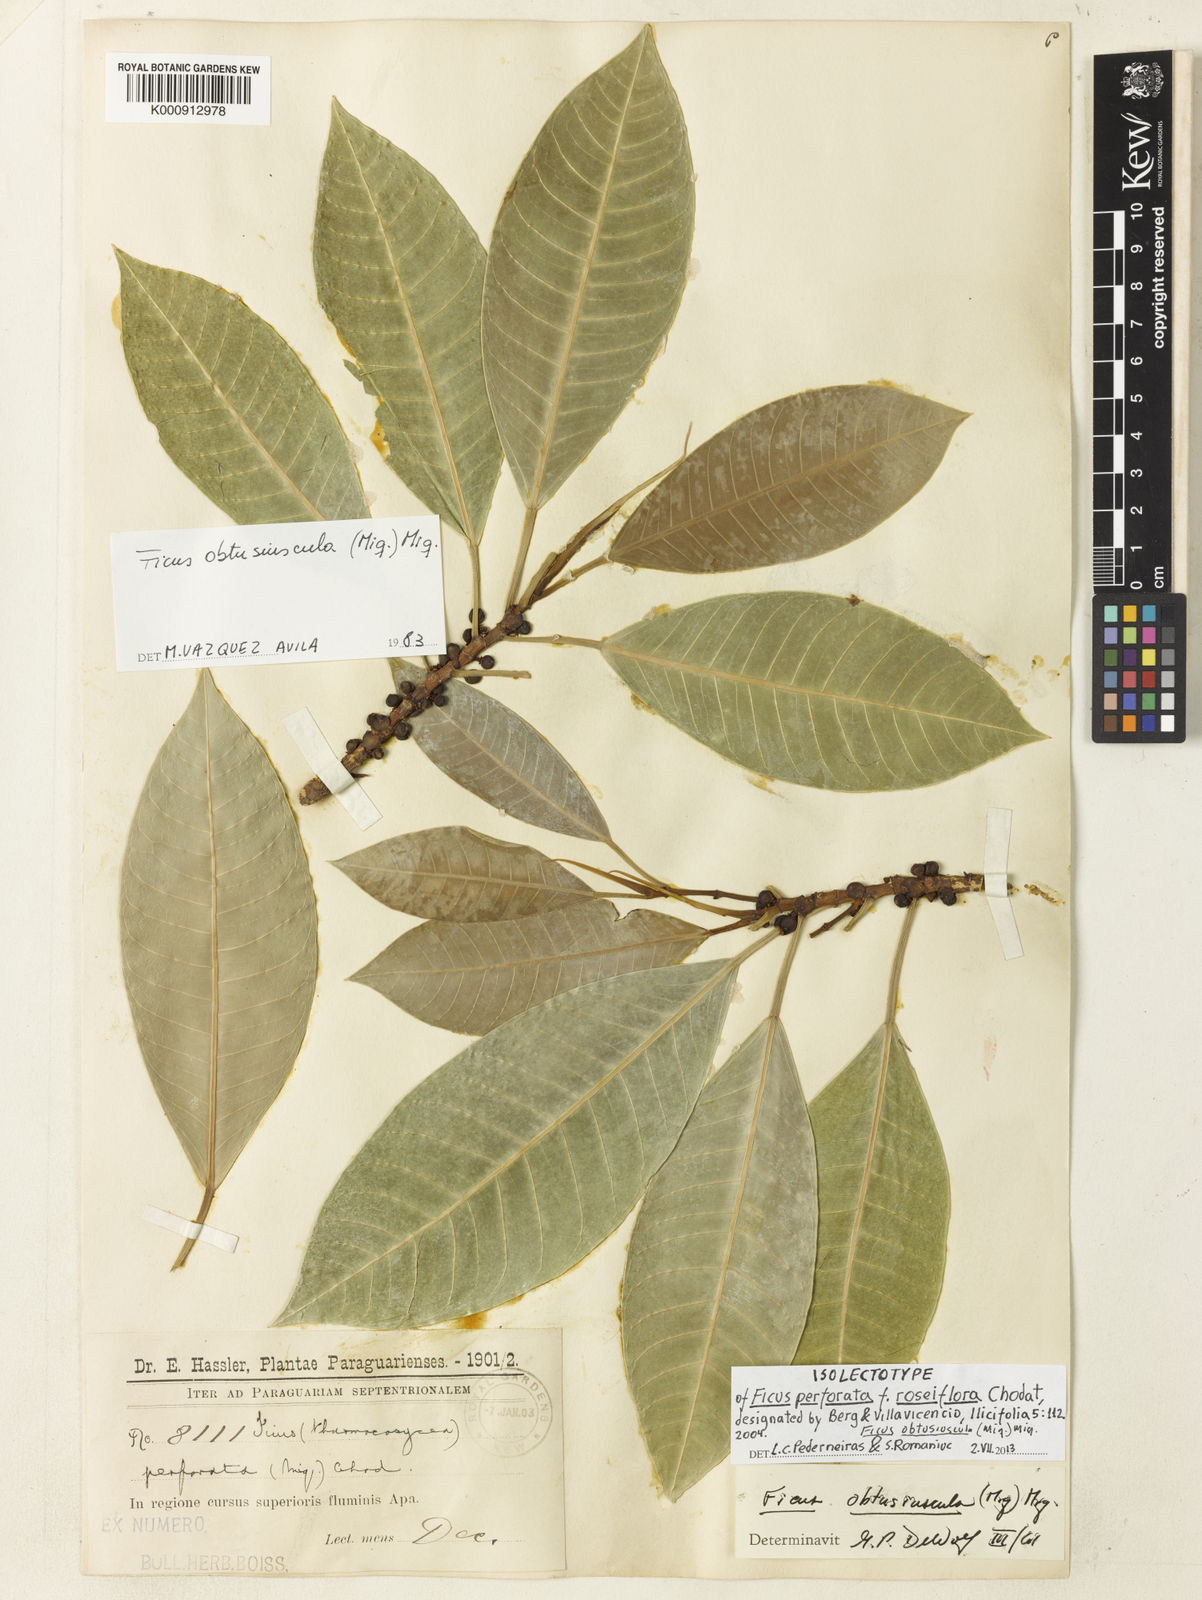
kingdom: Plantae
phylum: Tracheophyta
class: Magnoliopsida
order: Rosales
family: Moraceae
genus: Ficus
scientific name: Ficus obtusiuscula
